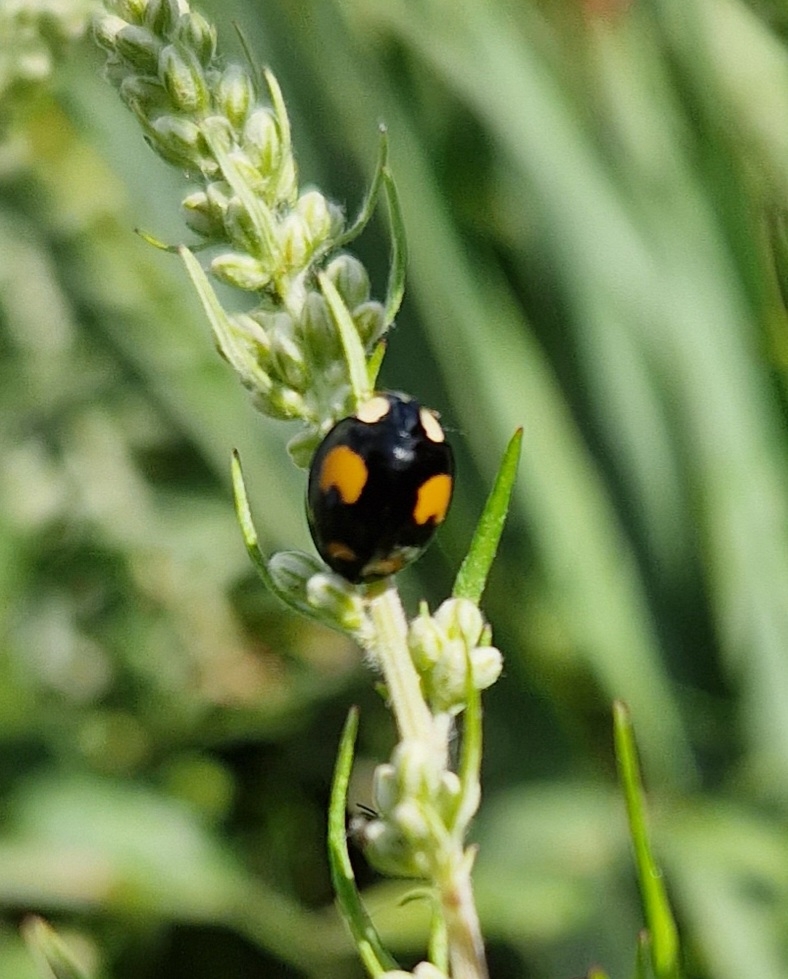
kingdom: Animalia
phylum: Arthropoda
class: Insecta
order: Coleoptera
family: Coccinellidae
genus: Harmonia
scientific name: Harmonia axyridis
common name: Harlekinmariehøne
